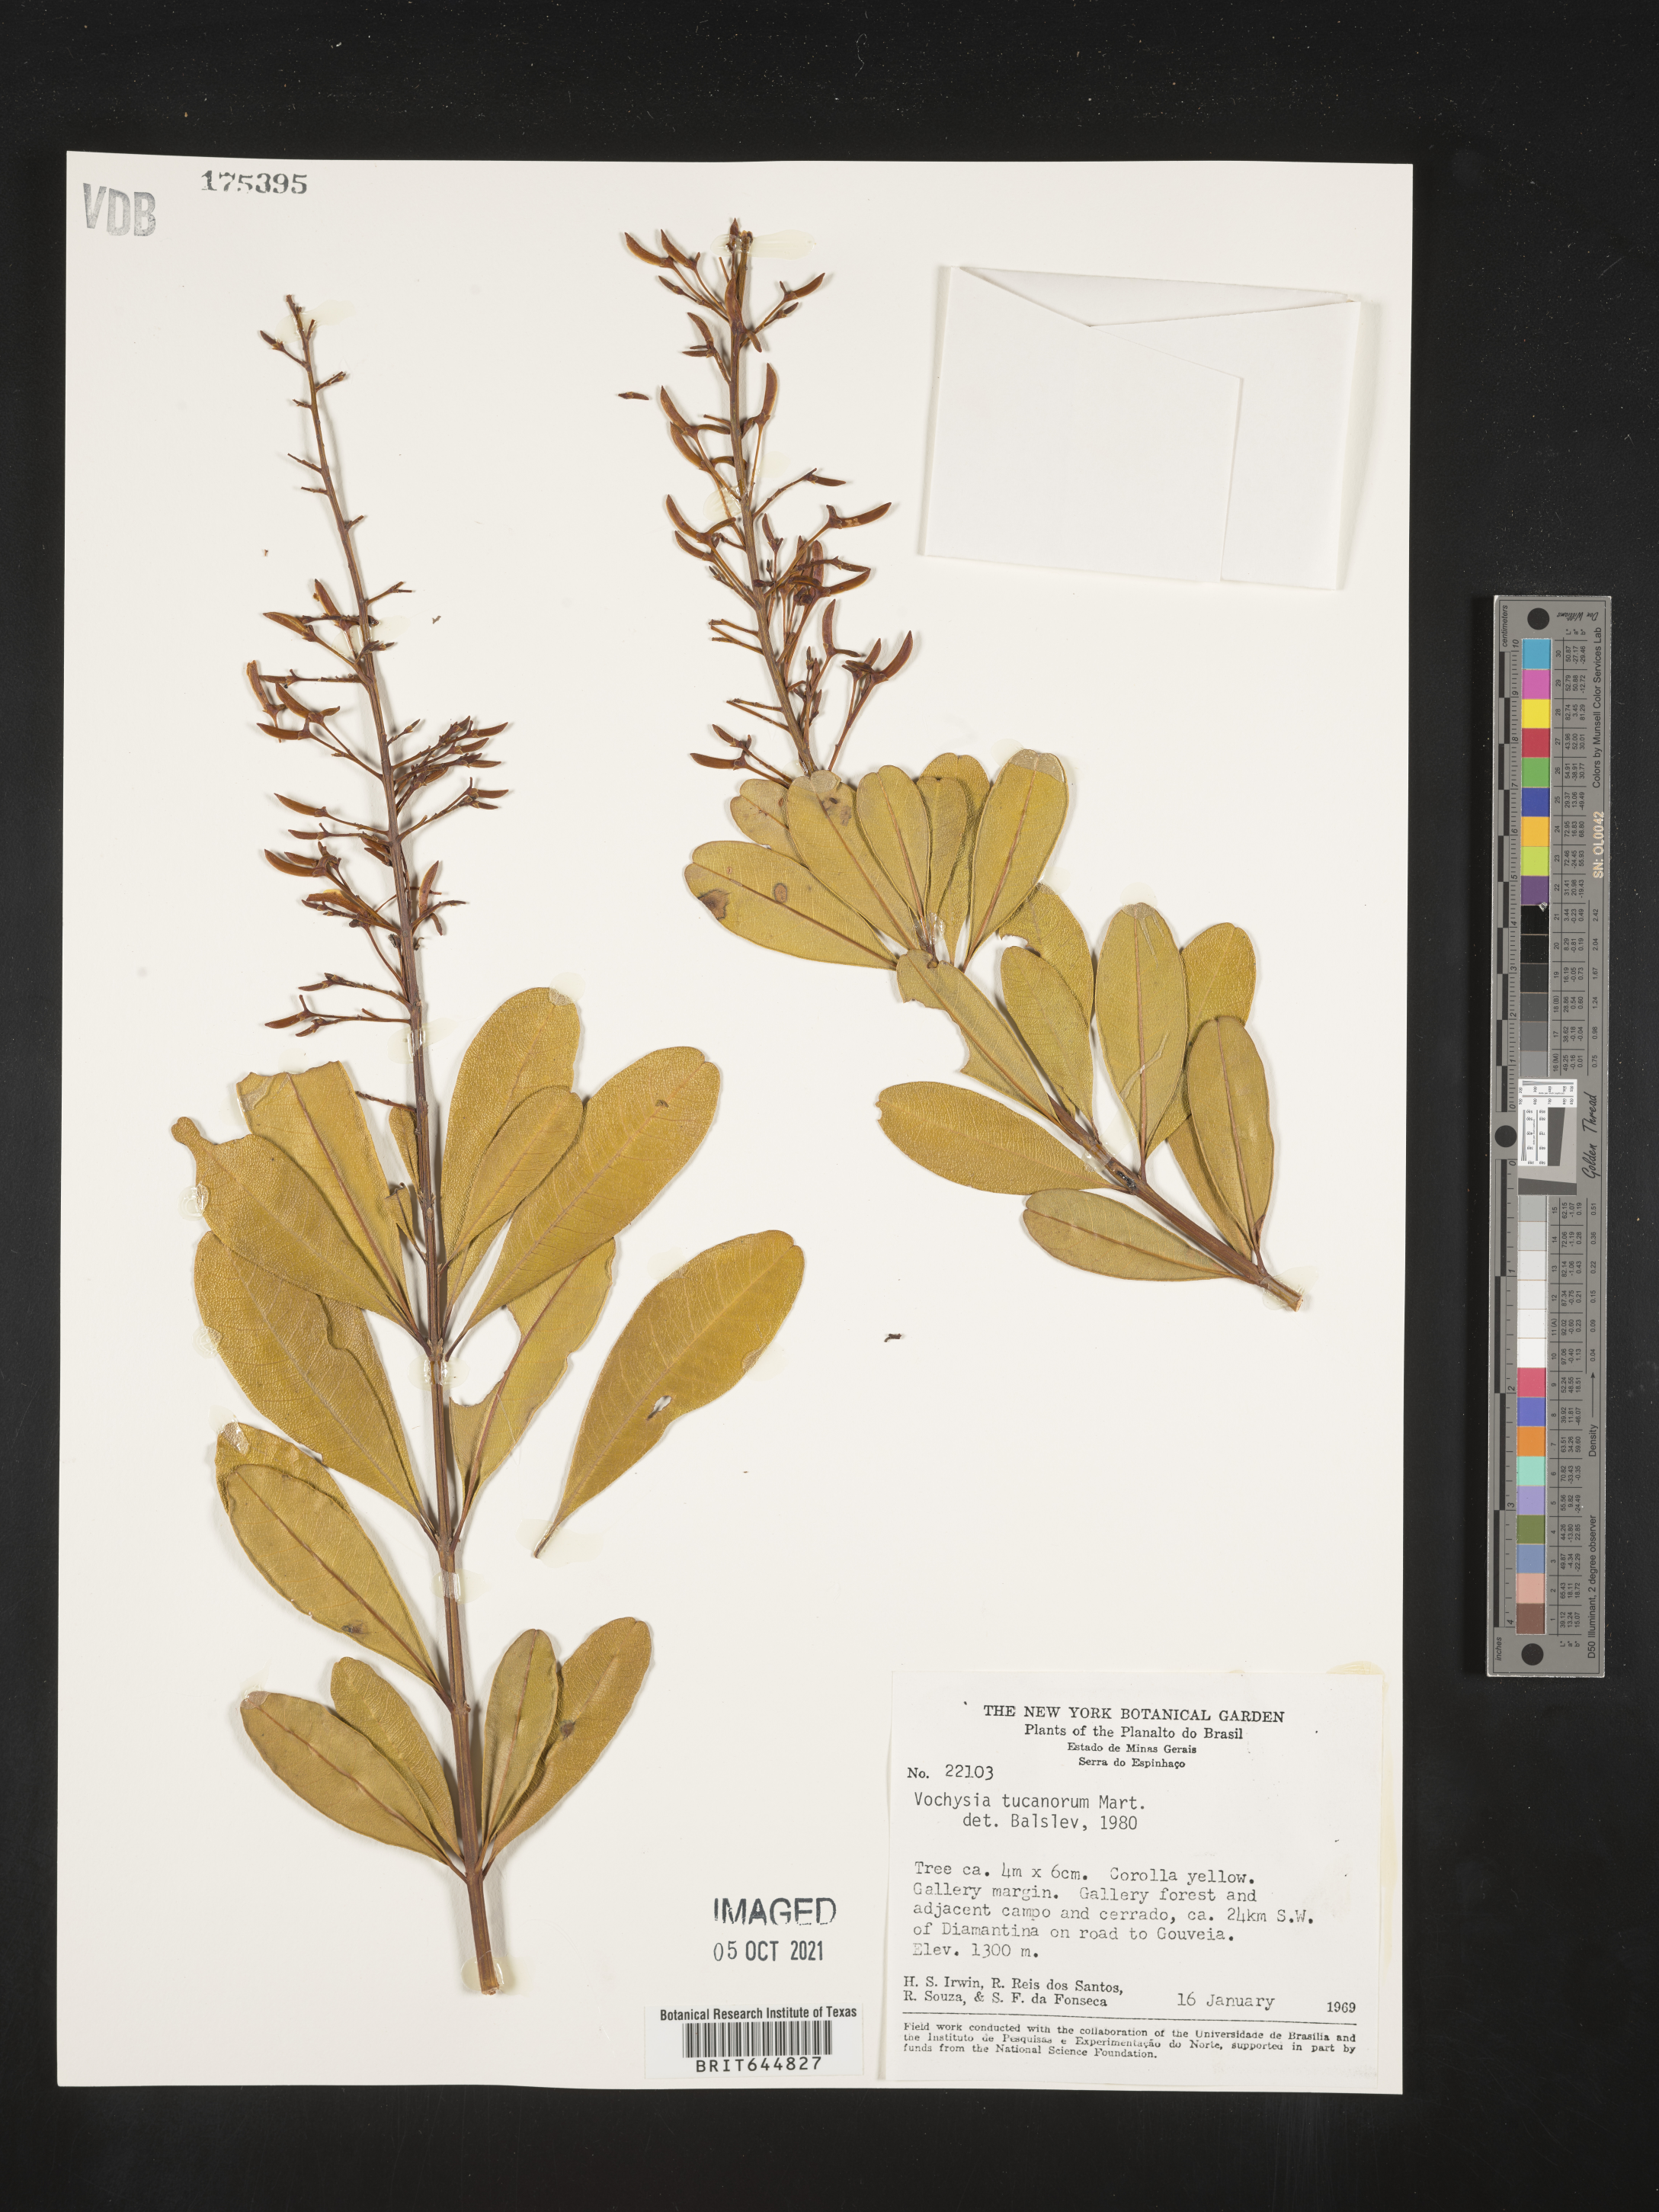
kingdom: Plantae
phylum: Tracheophyta
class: Magnoliopsida
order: Myrtales
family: Vochysiaceae
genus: Vochysia
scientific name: Vochysia
